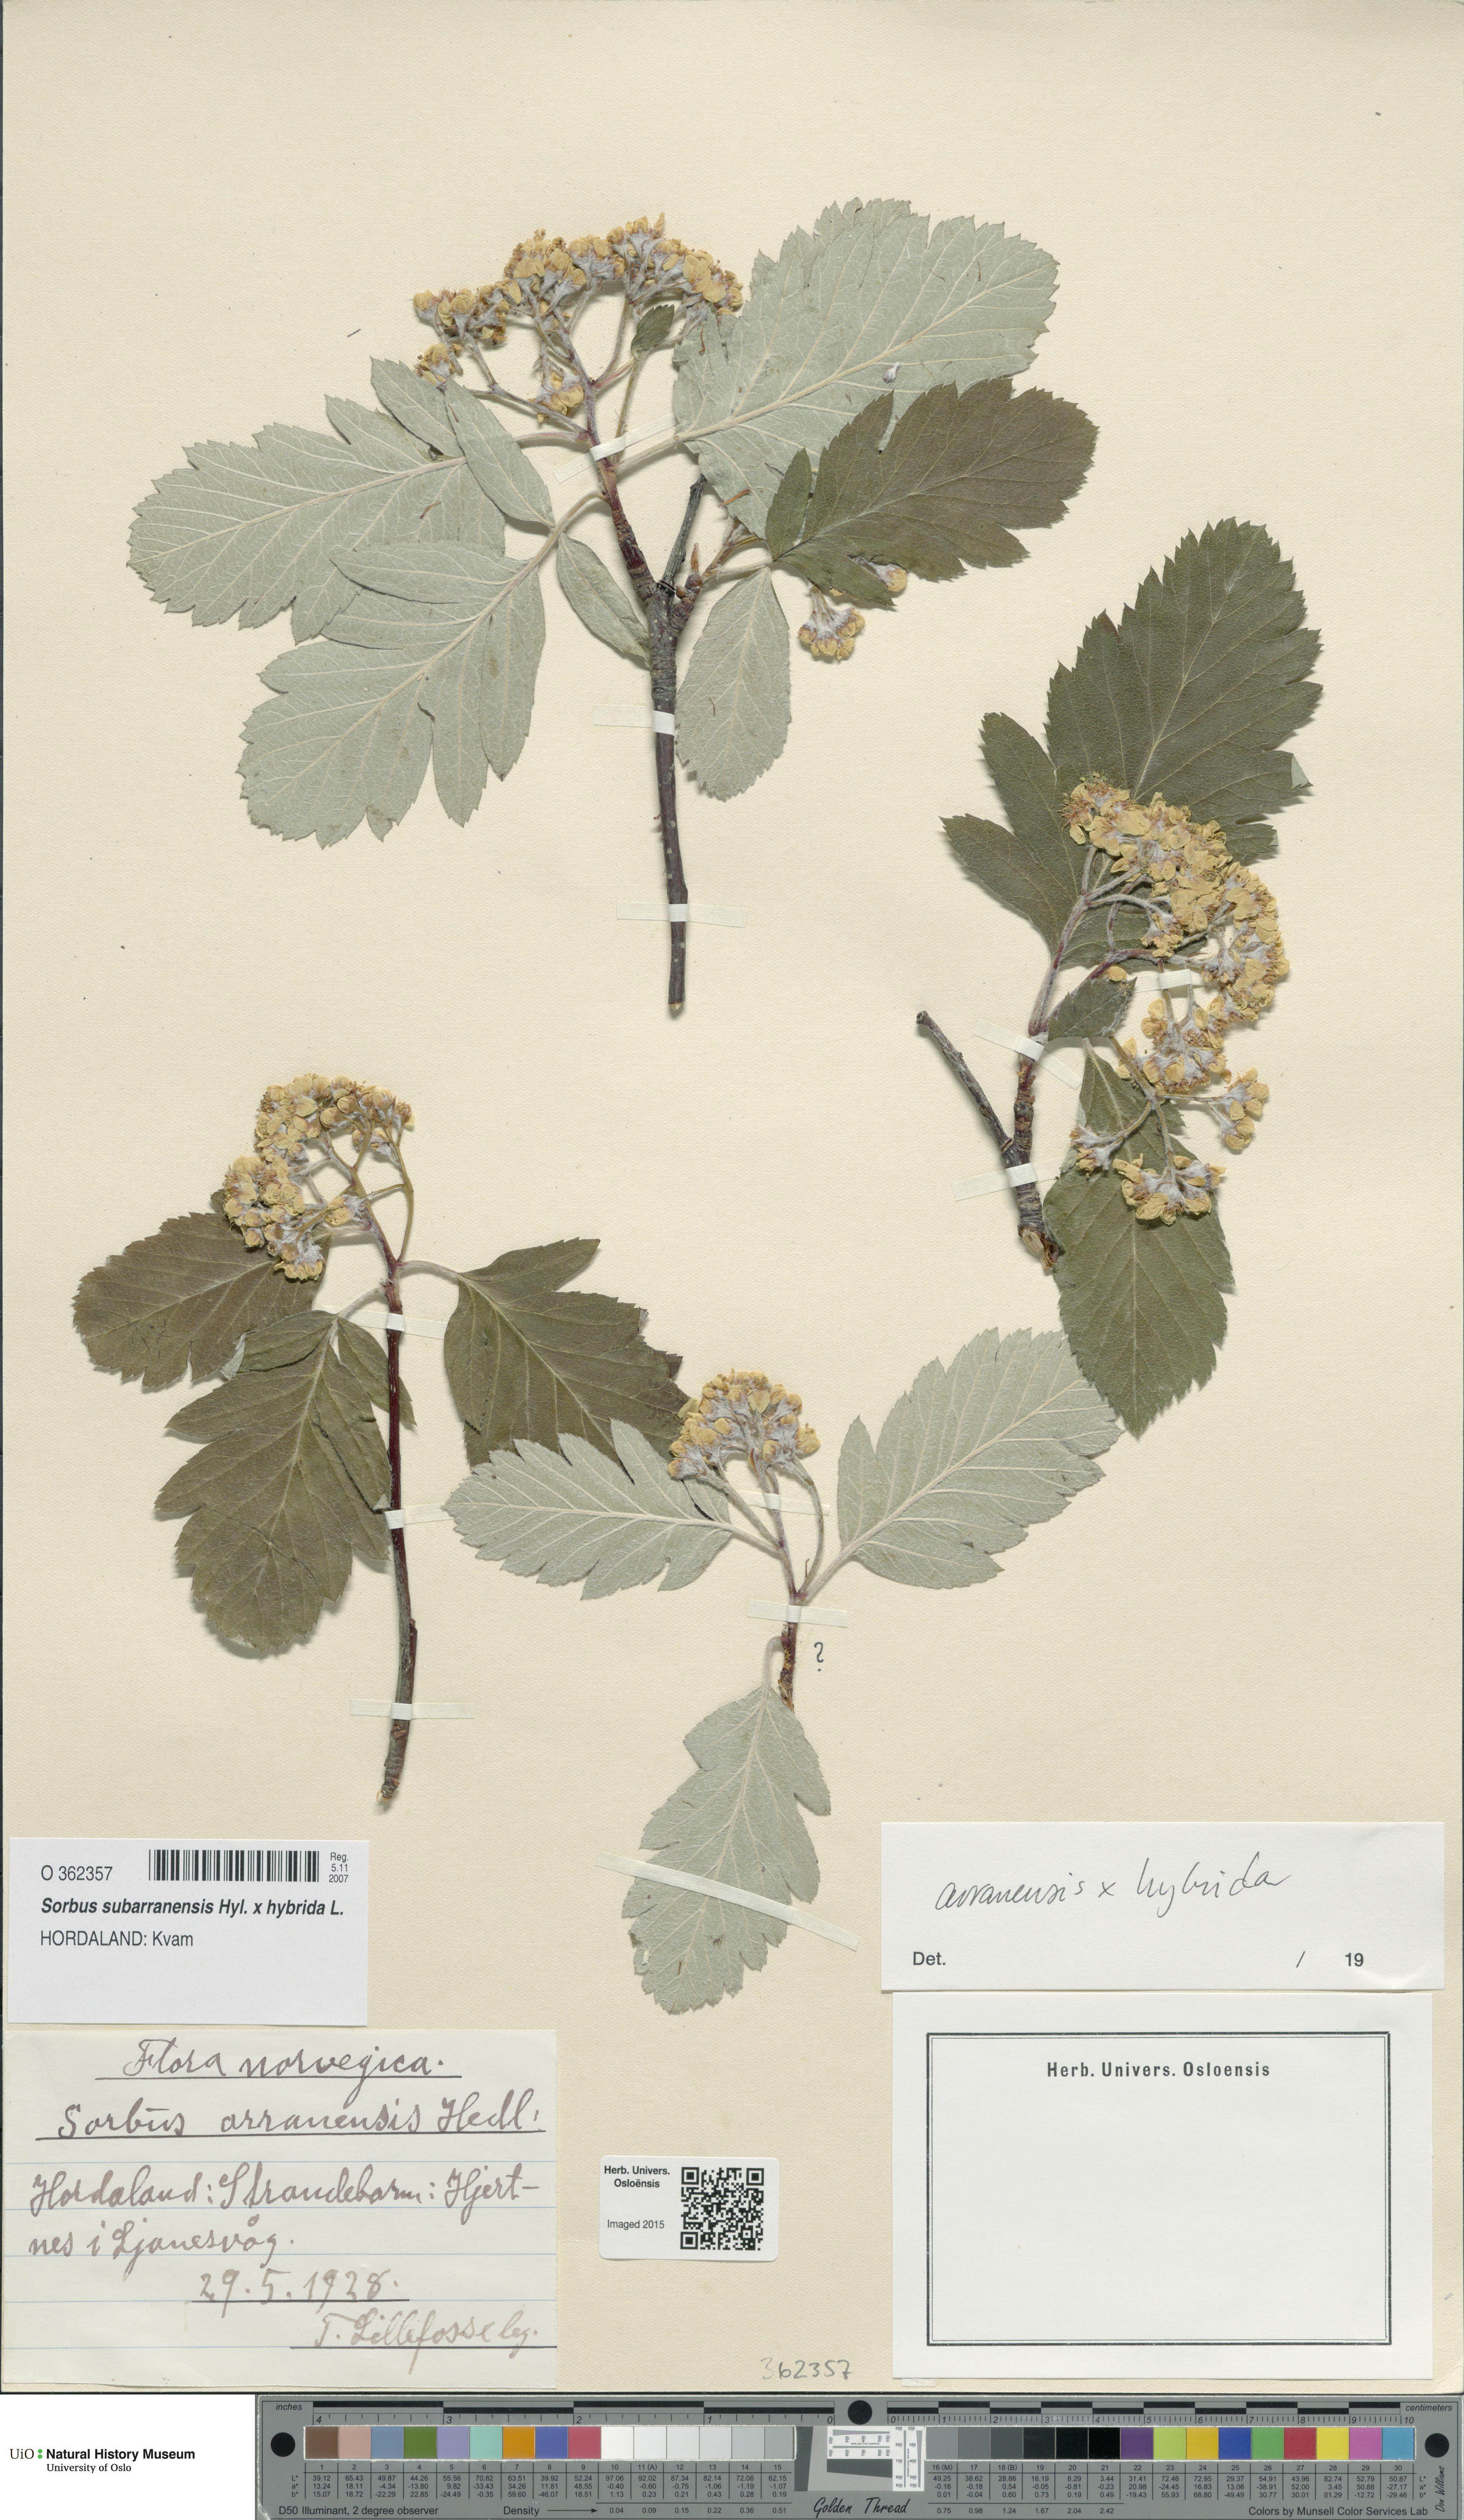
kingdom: Plantae
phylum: Tracheophyta
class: Magnoliopsida
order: Rosales
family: Rosaceae
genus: Hedlundia
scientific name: Hedlundia
